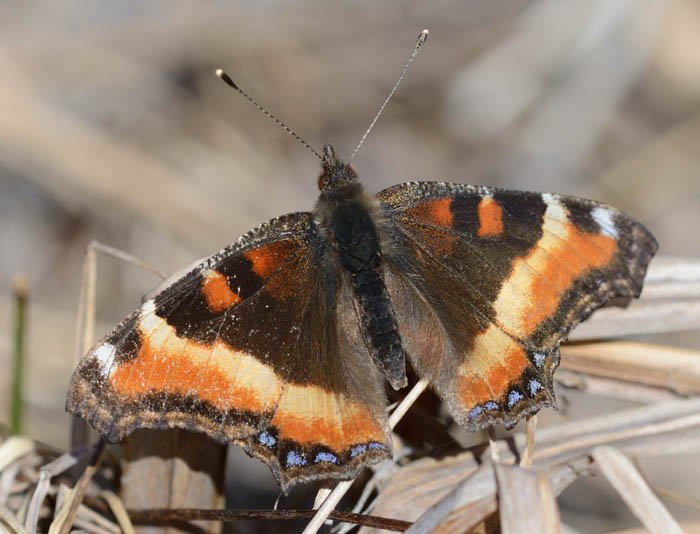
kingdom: Animalia
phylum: Arthropoda
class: Insecta
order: Lepidoptera
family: Nymphalidae
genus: Aglais
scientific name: Aglais milberti
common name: Milbert's Tortoiseshell
